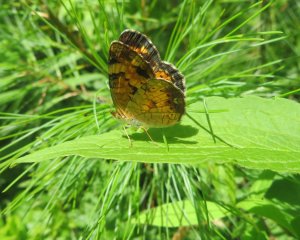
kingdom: Animalia
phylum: Arthropoda
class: Insecta
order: Lepidoptera
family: Nymphalidae
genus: Phyciodes
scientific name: Phyciodes tharos
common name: Pearl Crescent
